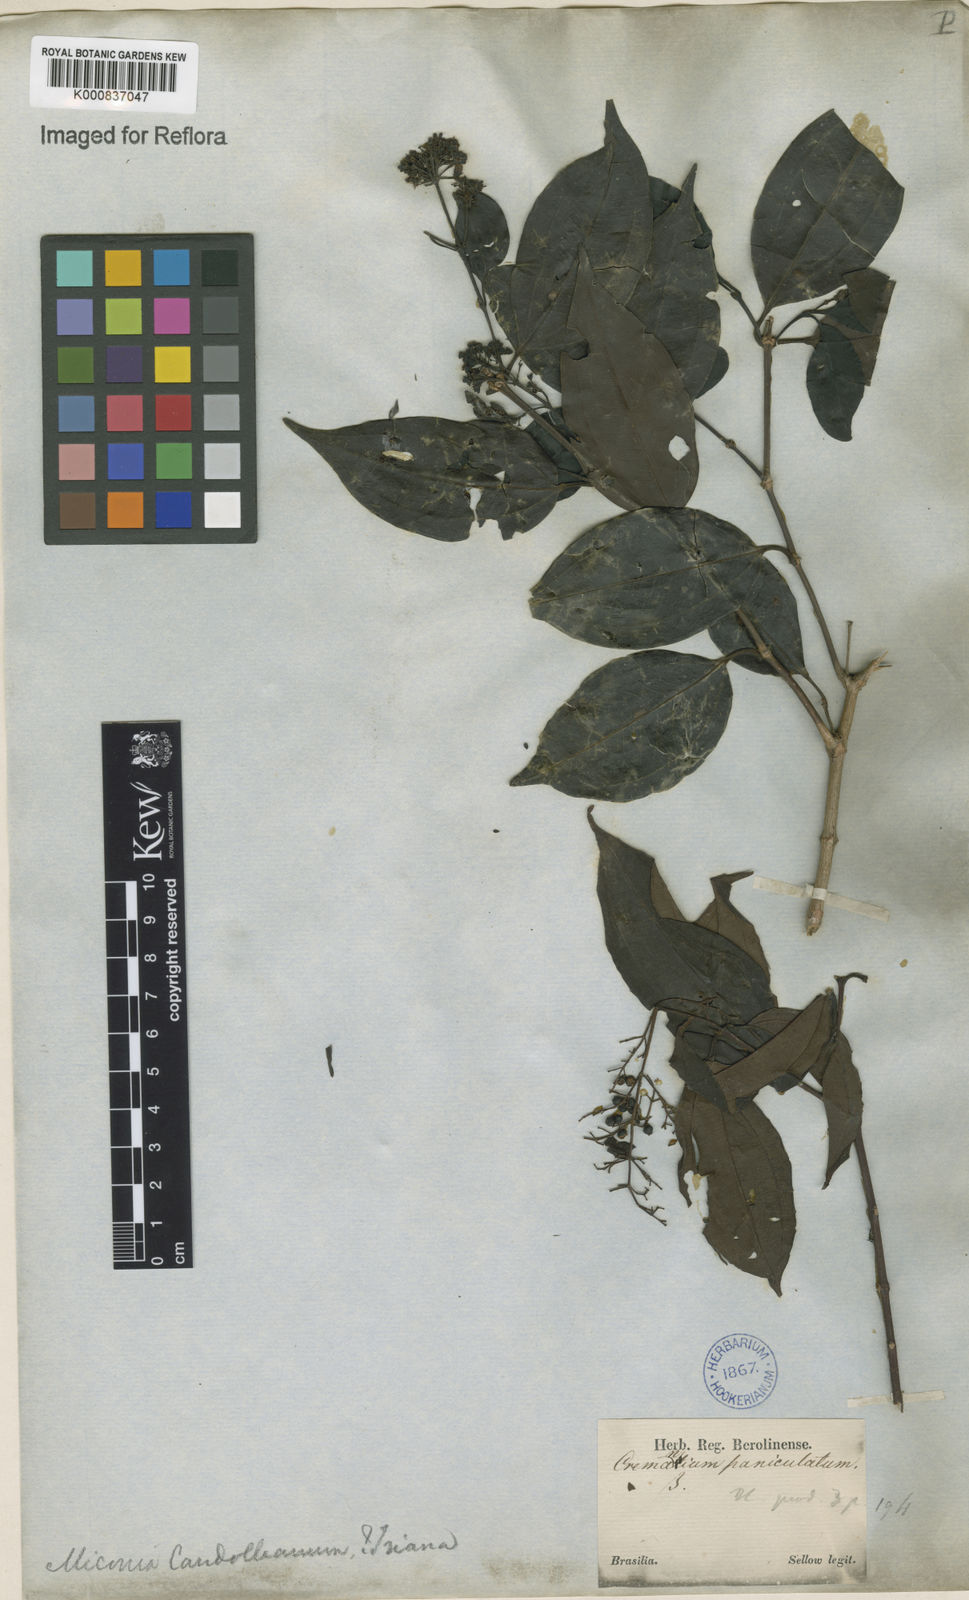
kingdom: Plantae
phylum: Tracheophyta
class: Magnoliopsida
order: Myrtales
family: Melastomataceae
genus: Miconia
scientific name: Miconia cinnamomifolia
